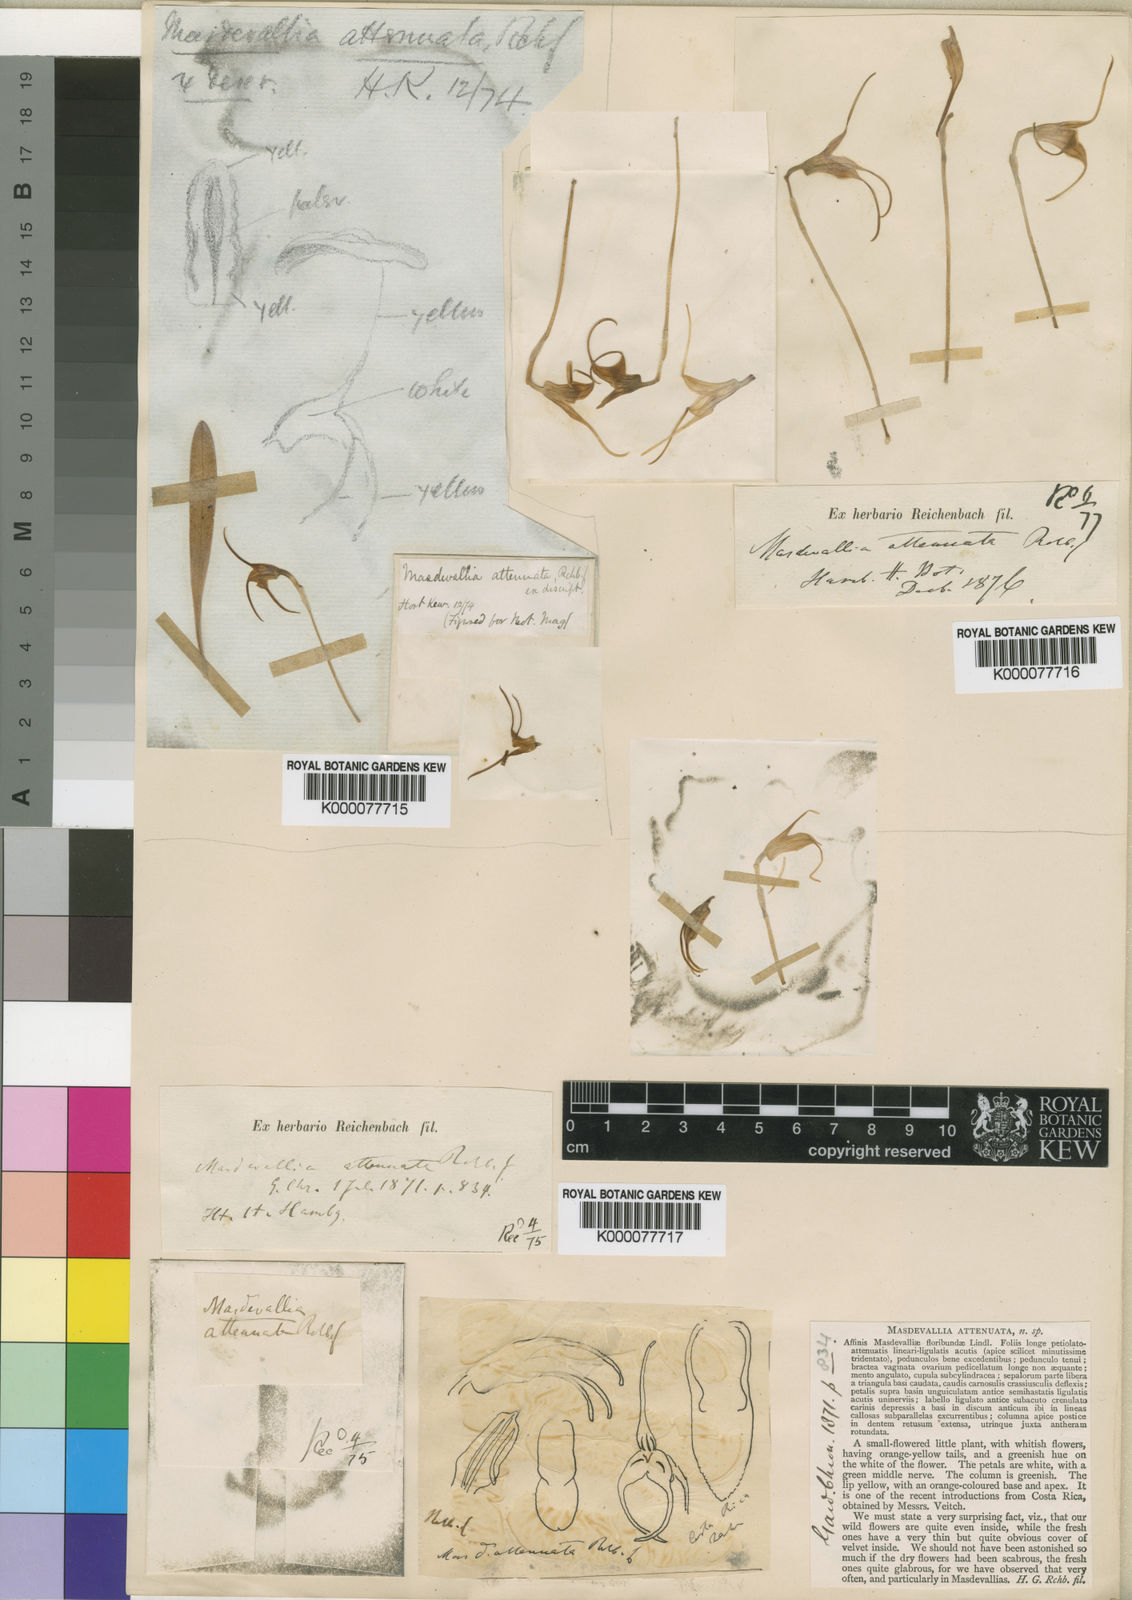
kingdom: Plantae
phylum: Tracheophyta
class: Liliopsida
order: Asparagales
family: Orchidaceae
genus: Masdevallia
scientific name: Masdevallia
